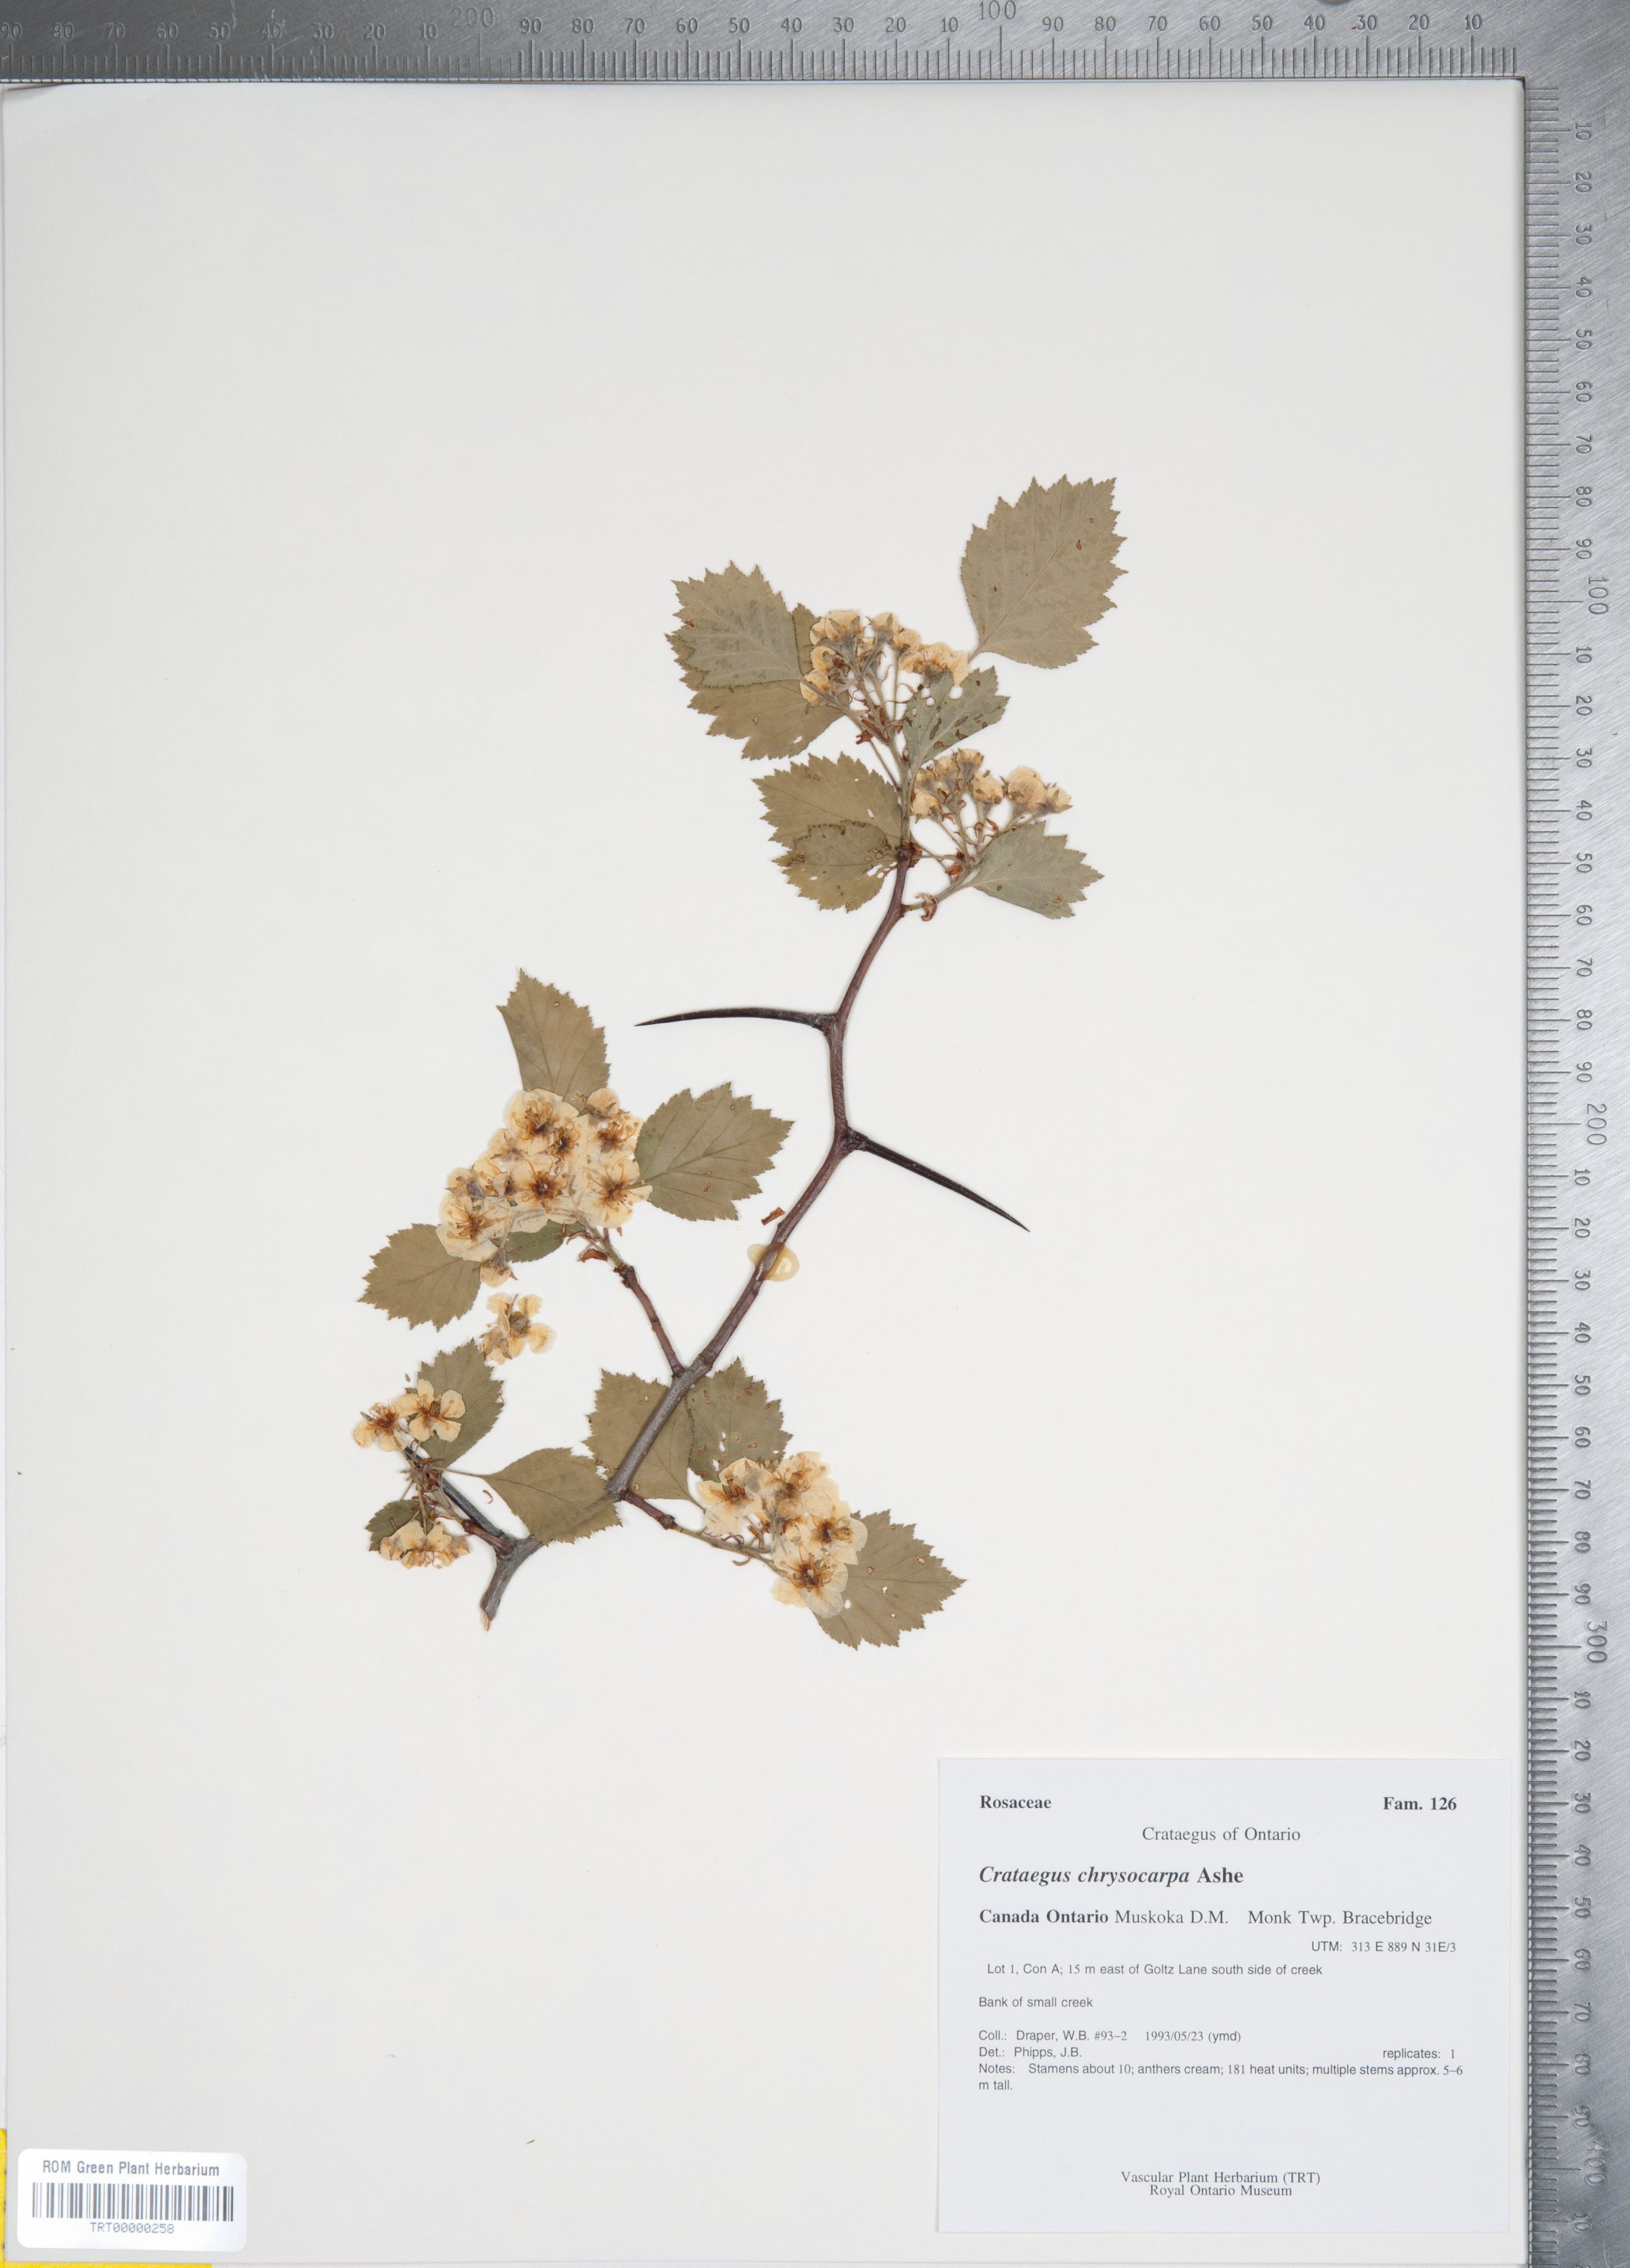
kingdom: Plantae
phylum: Tracheophyta
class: Magnoliopsida
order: Rosales
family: Rosaceae
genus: Crataegus
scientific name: Crataegus chrysocarpa
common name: Fire-berry hawthorn
